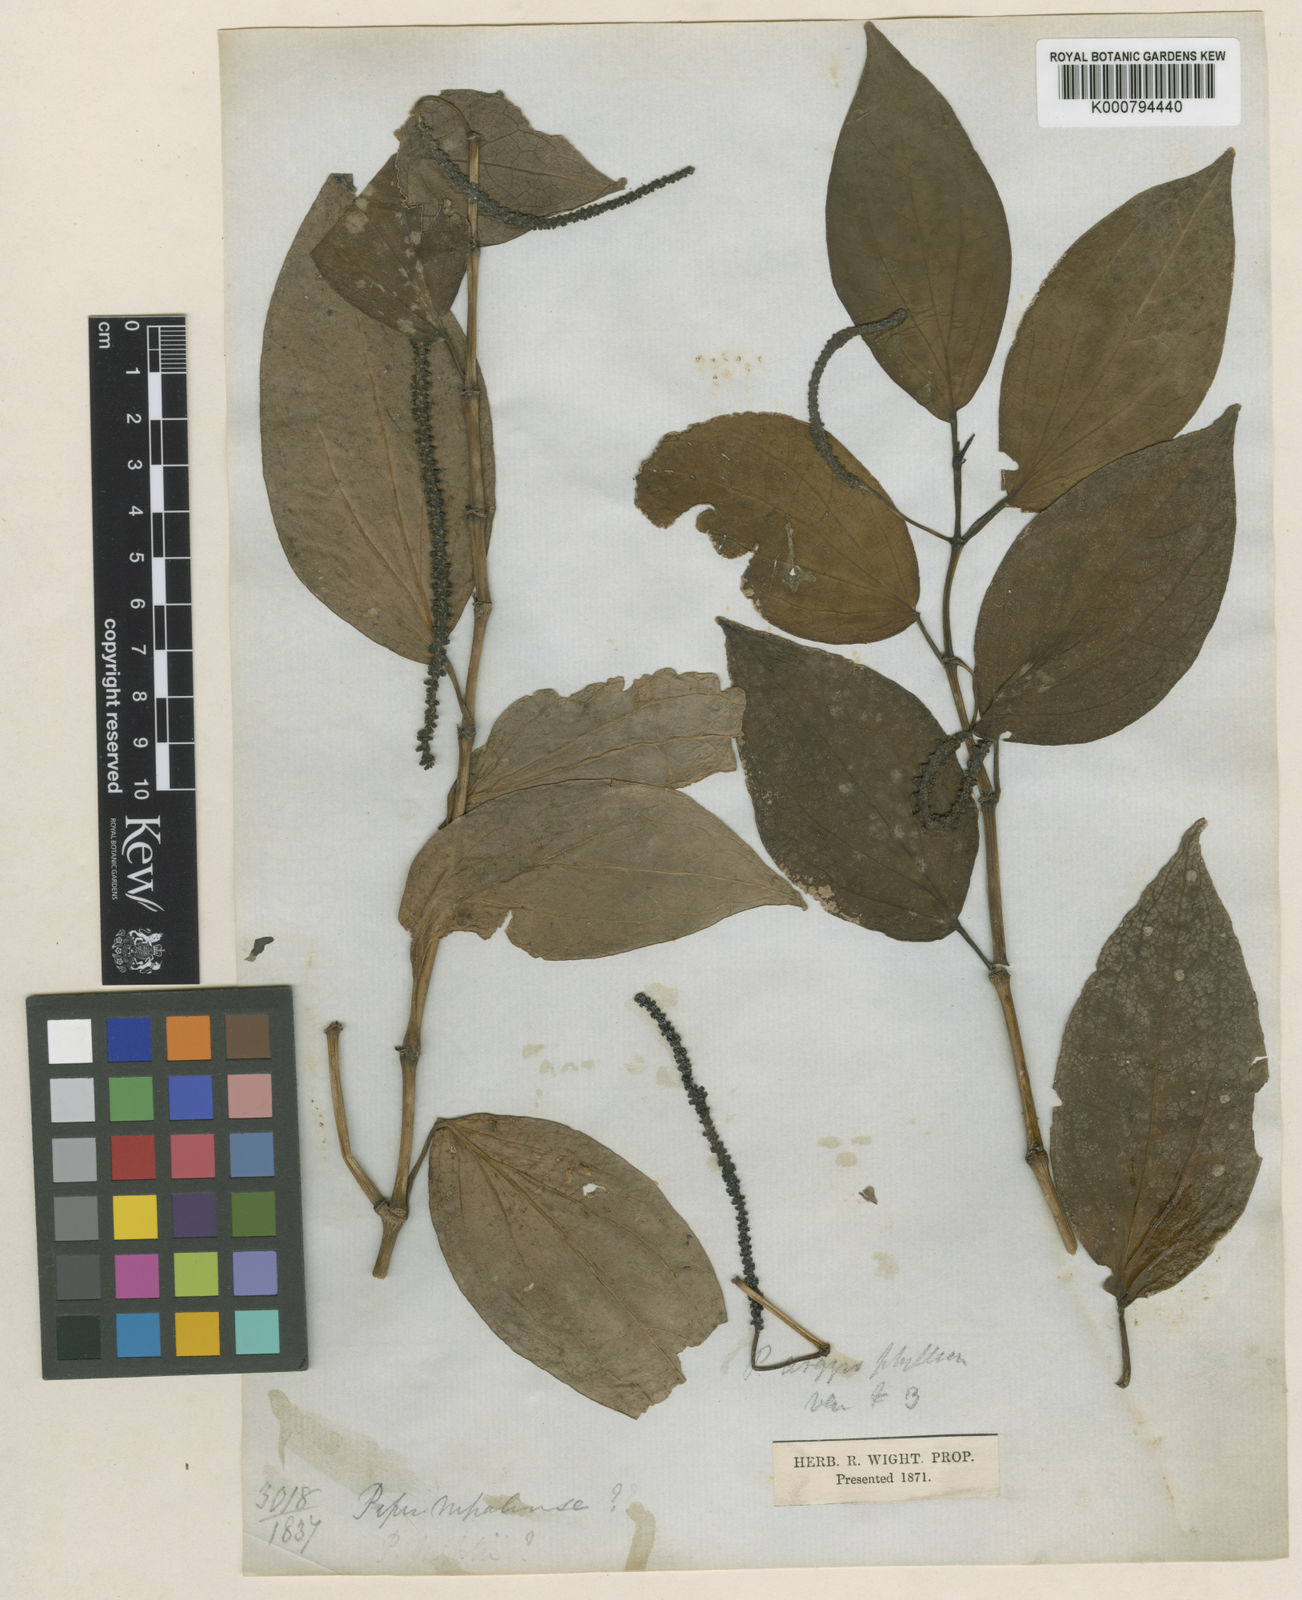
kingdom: Plantae
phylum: Tracheophyta
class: Magnoliopsida
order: Piperales
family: Piperaceae
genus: Piper
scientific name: Piper argyrophyllum
